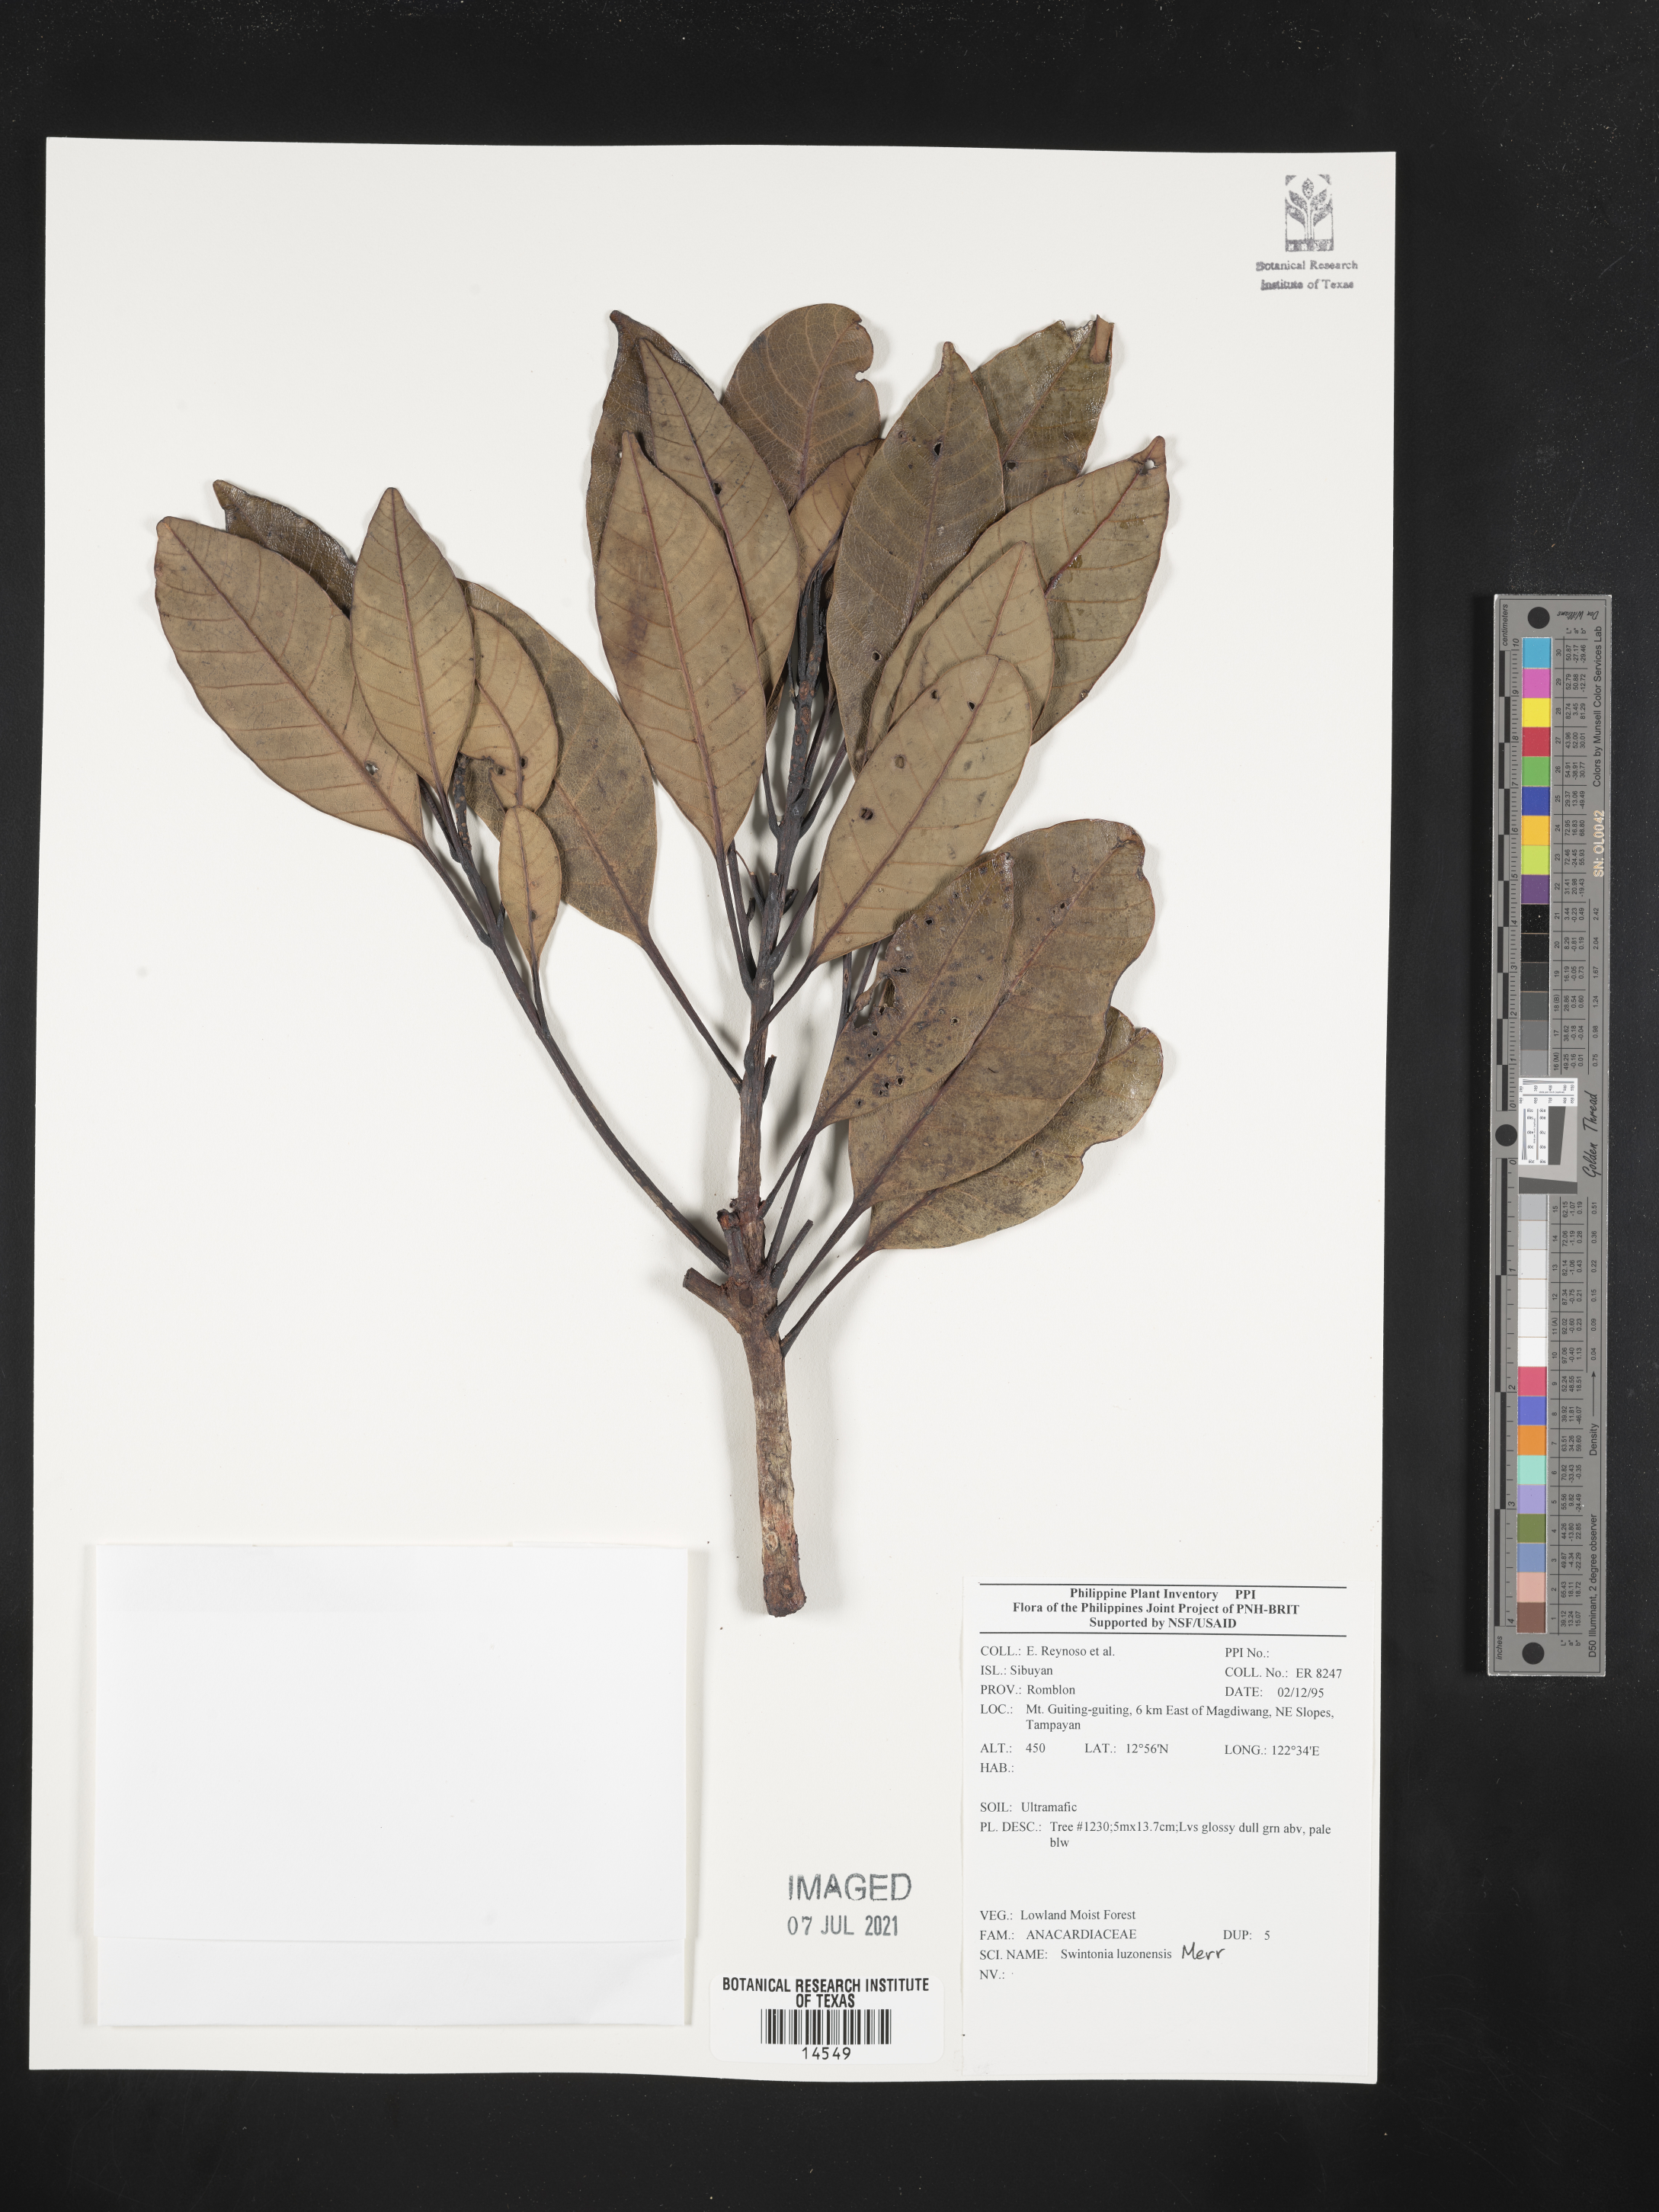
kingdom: Plantae
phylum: Tracheophyta
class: Magnoliopsida
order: Sapindales
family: Anacardiaceae
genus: Swintonia
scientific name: Swintonia acuta
